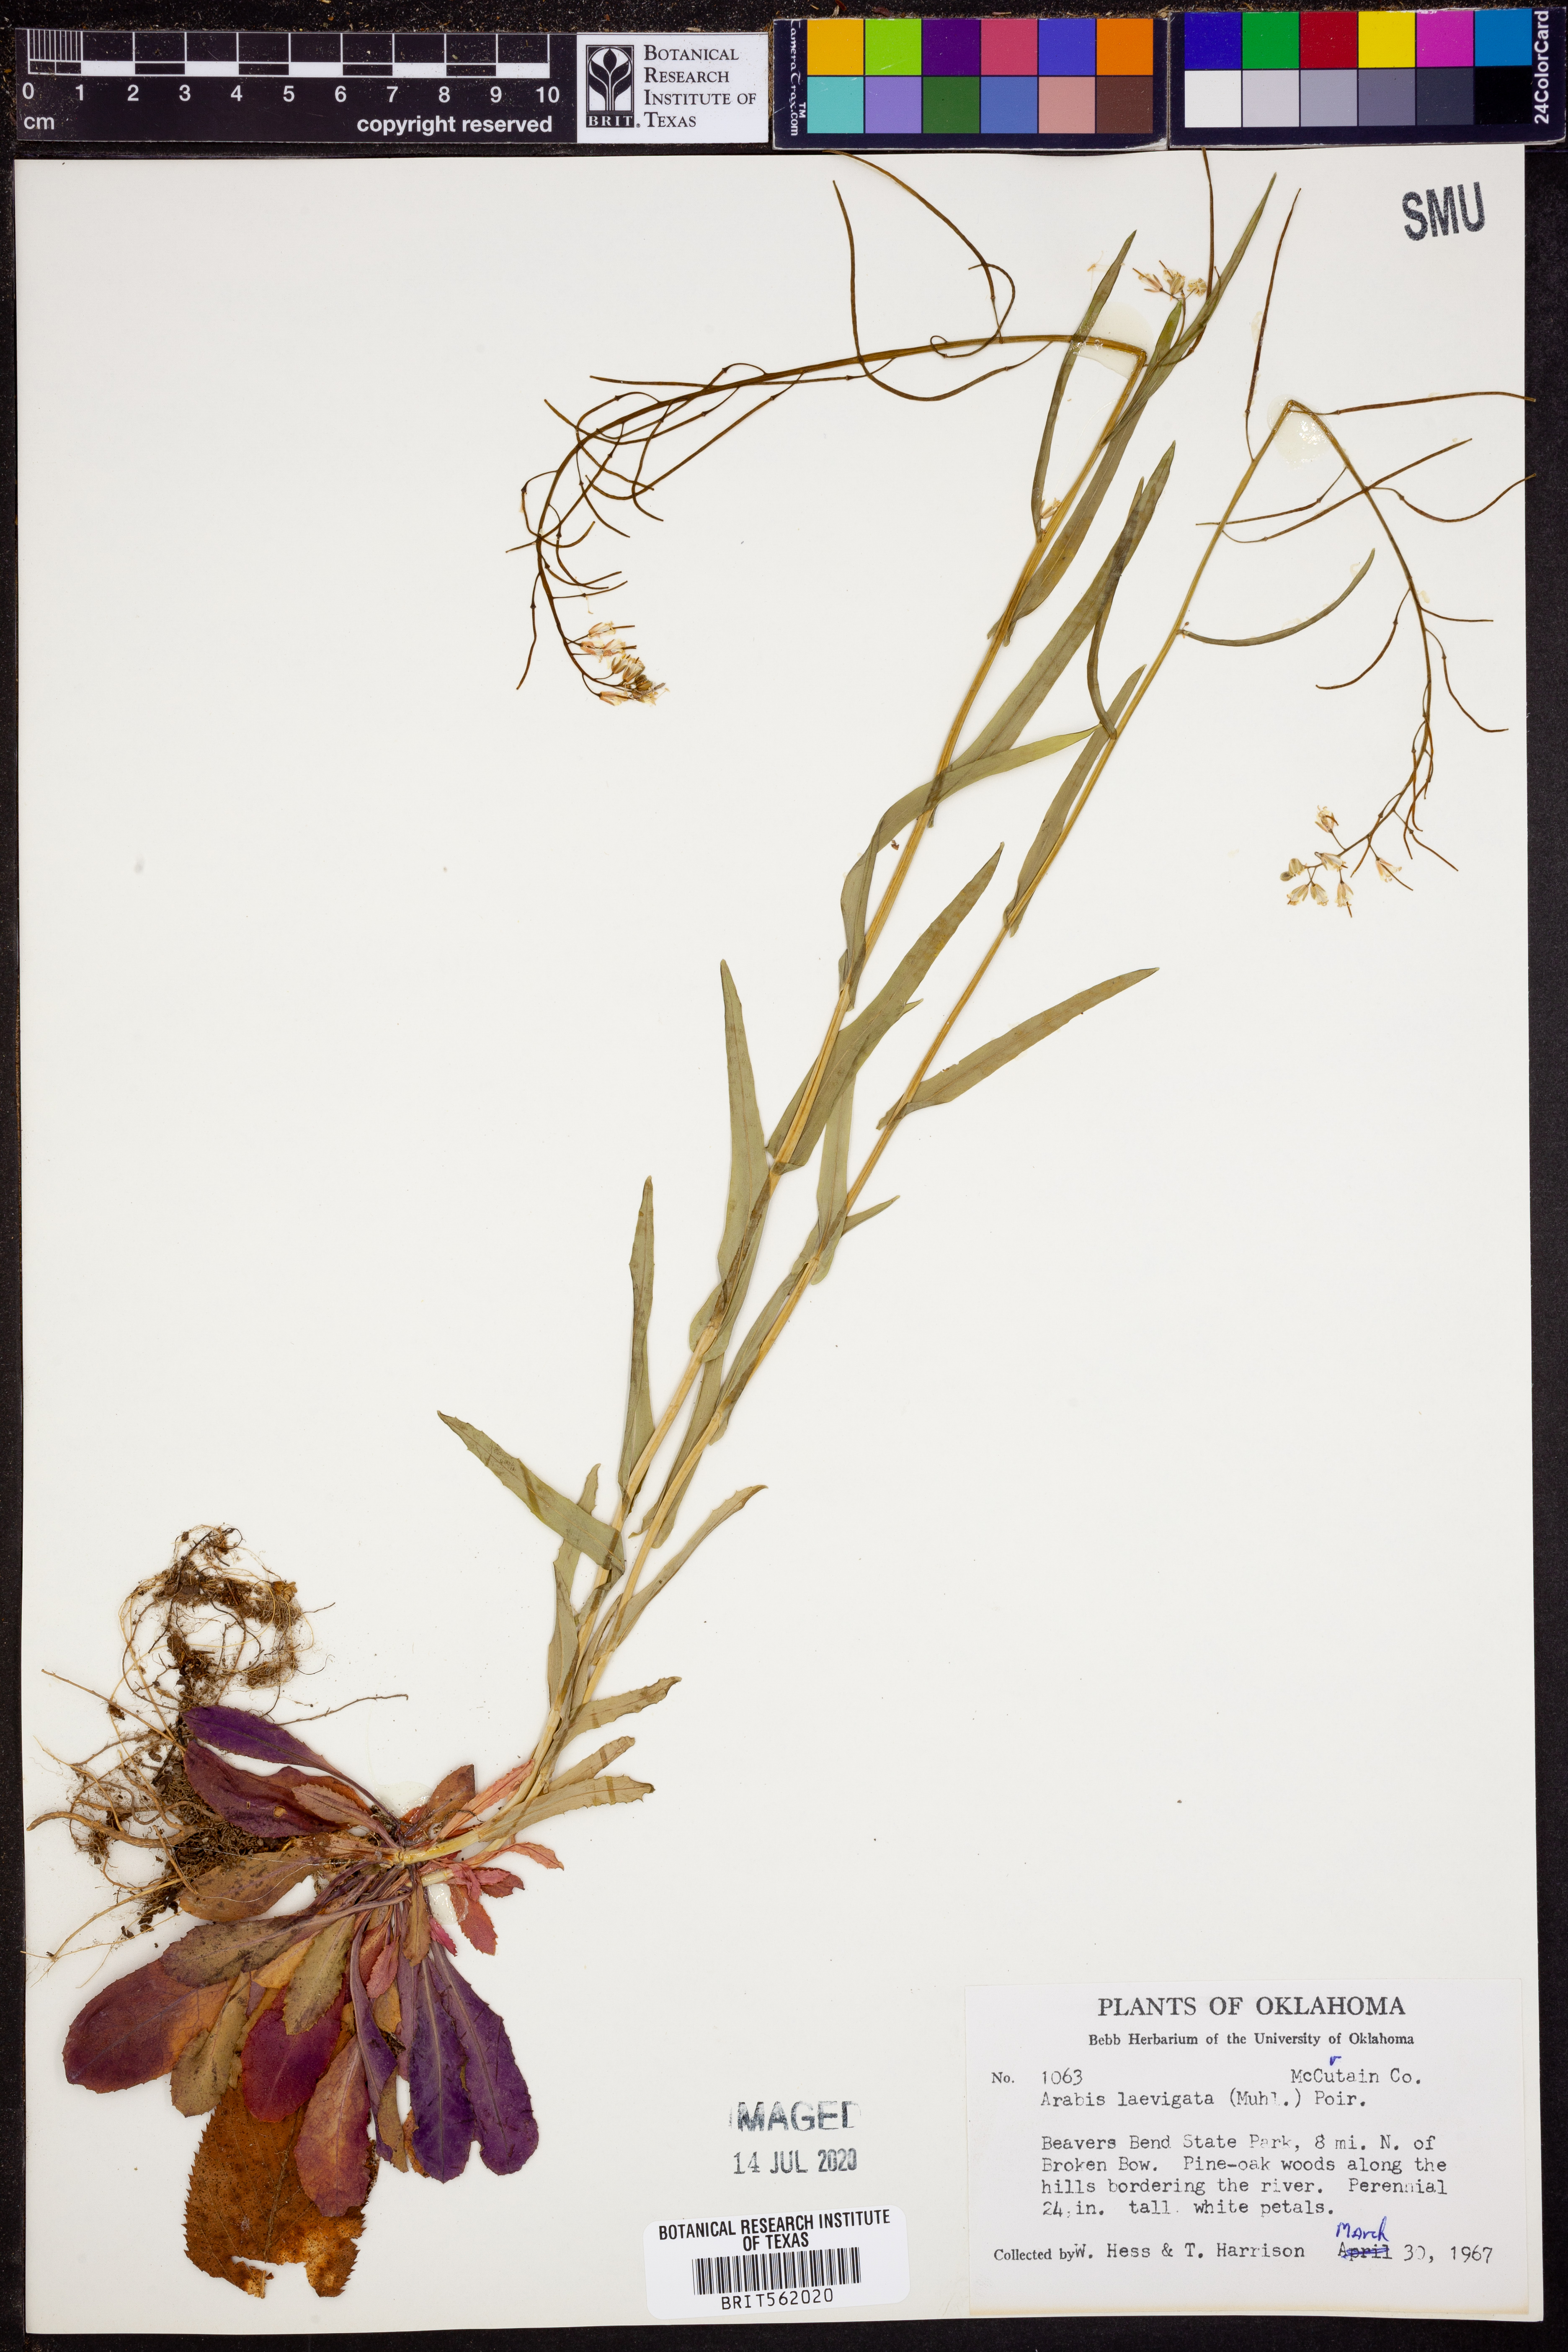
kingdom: Plantae
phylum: Tracheophyta
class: Magnoliopsida
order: Brassicales
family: Brassicaceae
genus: Arabis
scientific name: Arabis laevigata
